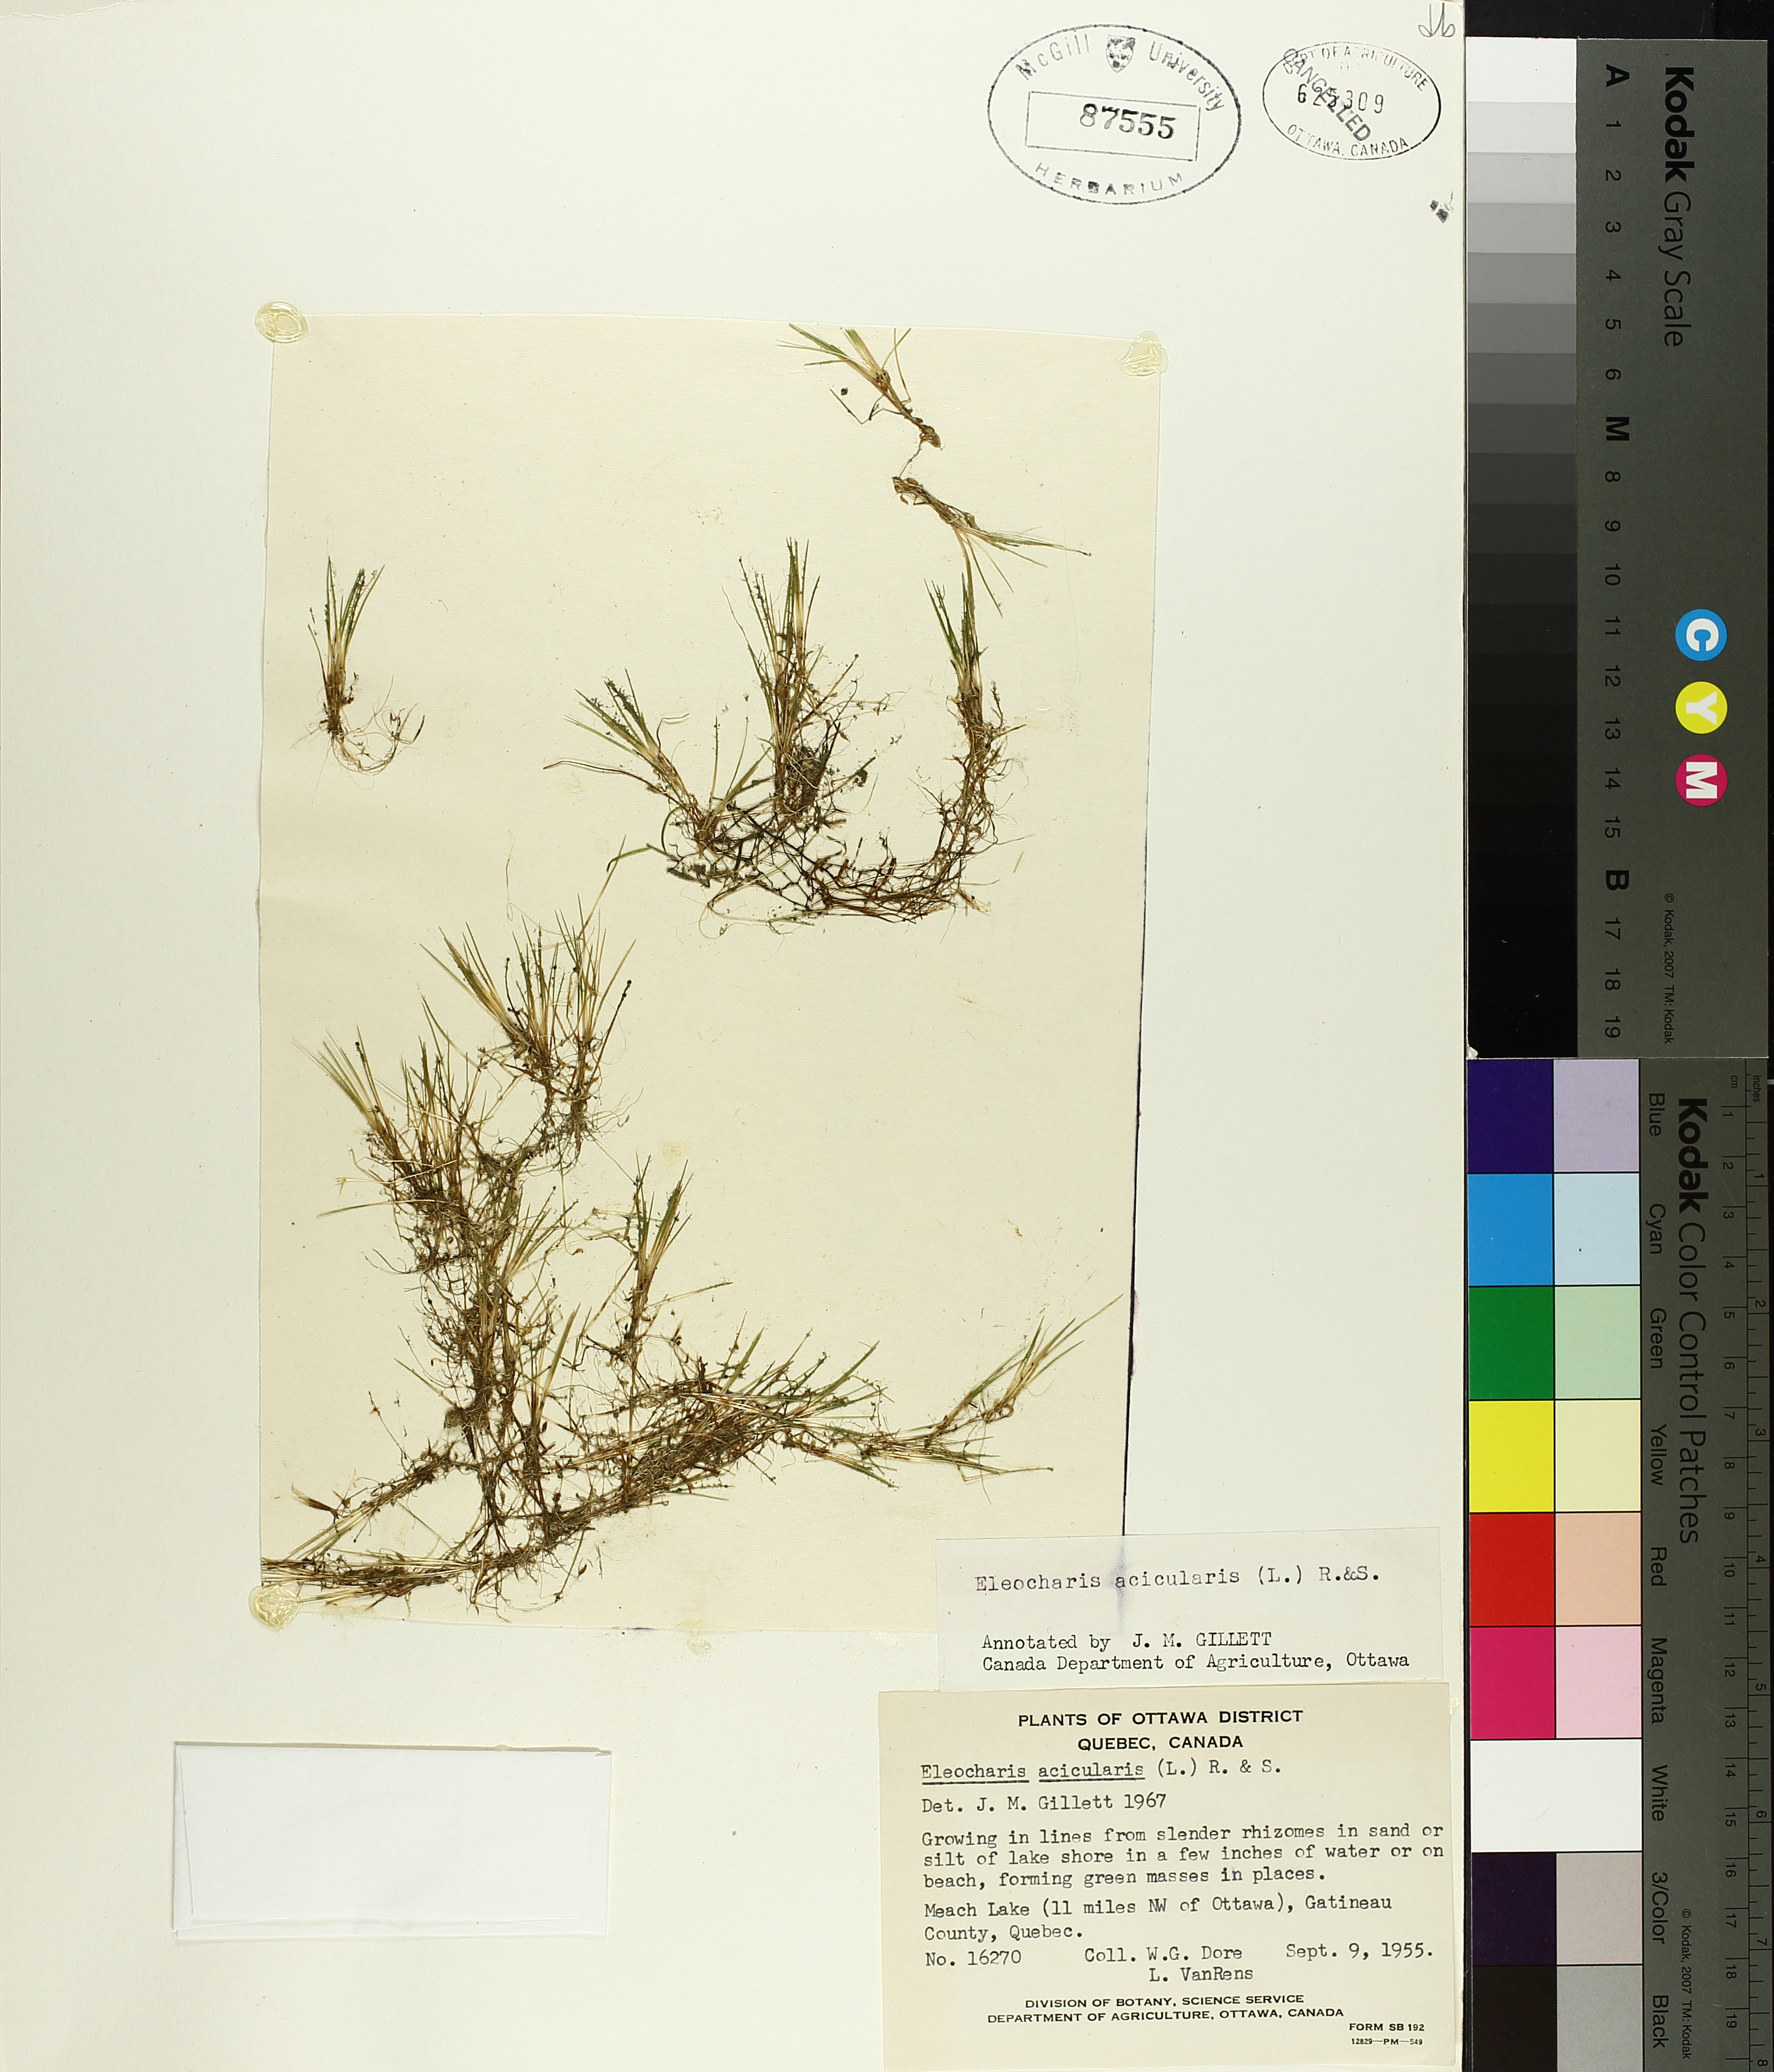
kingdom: Plantae
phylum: Tracheophyta
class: Liliopsida
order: Poales
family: Cyperaceae
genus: Eleocharis
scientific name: Eleocharis acicularis
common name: Needle spike-rush
